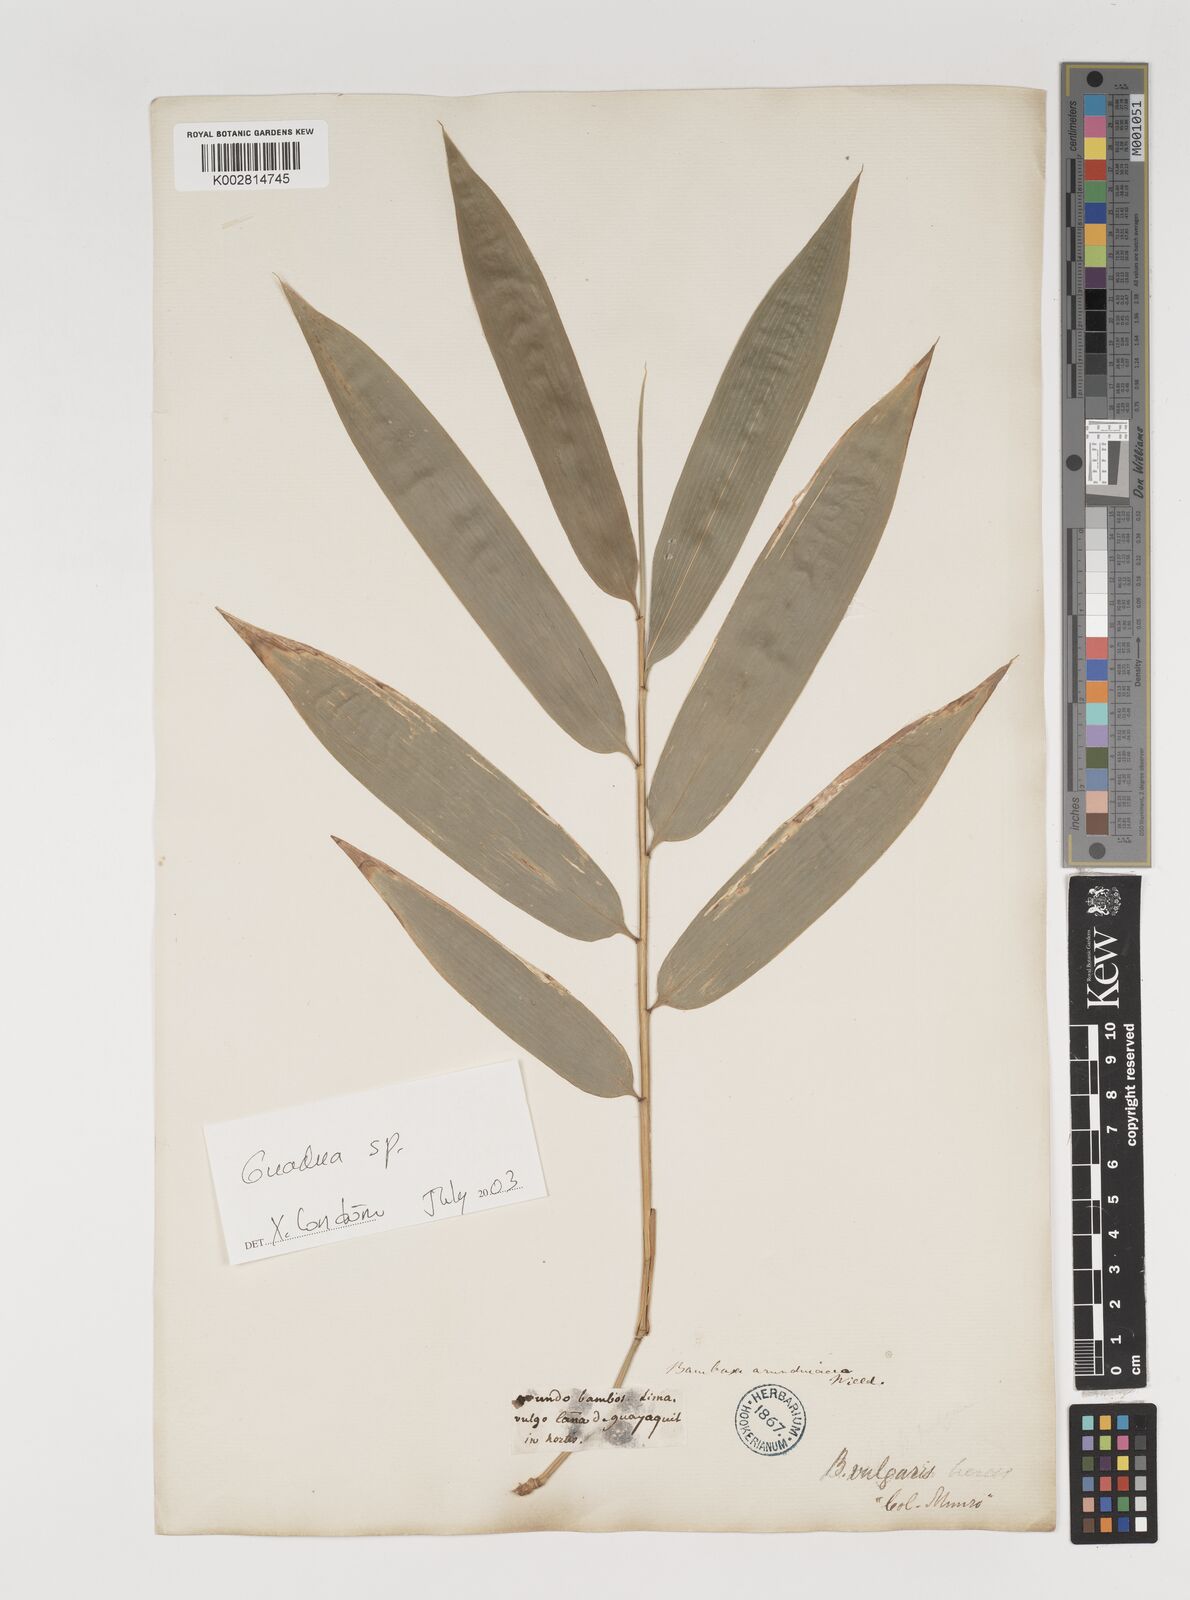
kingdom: Plantae
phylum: Tracheophyta
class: Liliopsida
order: Poales
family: Poaceae
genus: Guadua
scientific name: Guadua
